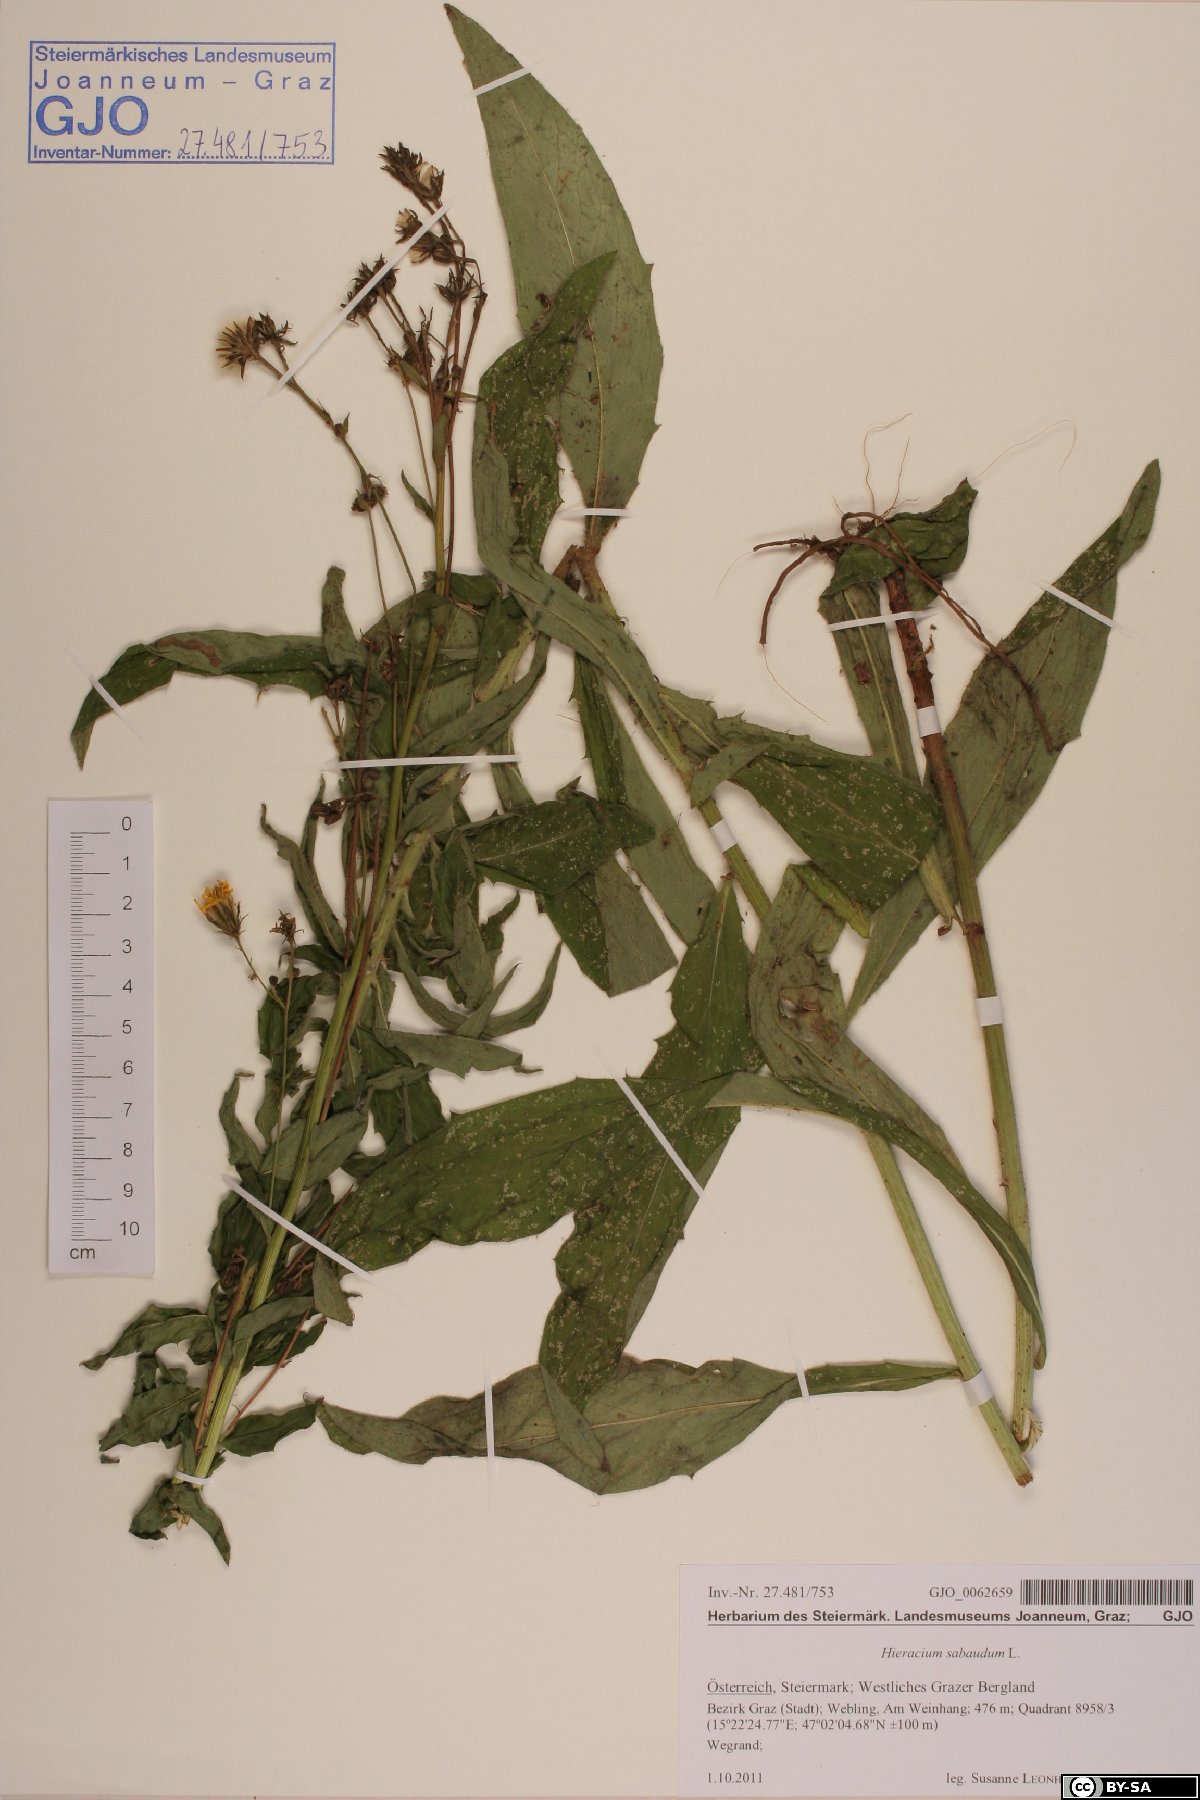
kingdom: Plantae
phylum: Tracheophyta
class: Magnoliopsida
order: Asterales
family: Asteraceae
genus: Hieracium
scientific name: Hieracium sabaudum
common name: New england hawkweed
